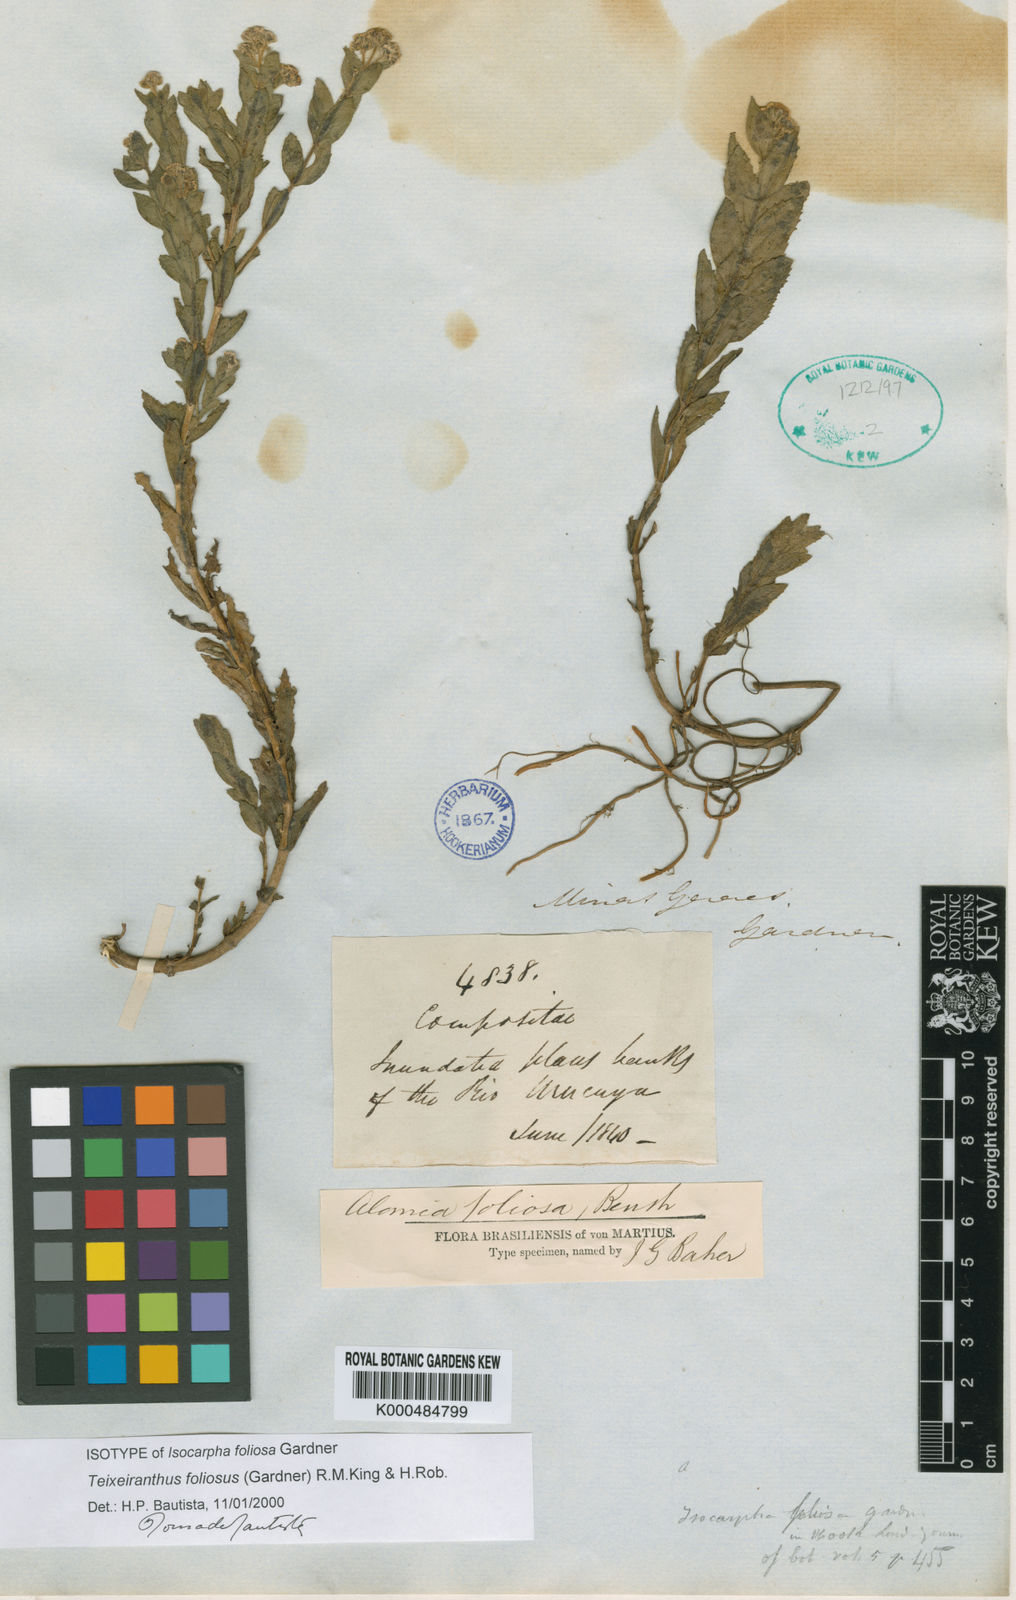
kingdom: Plantae
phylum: Tracheophyta
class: Magnoliopsida
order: Asterales
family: Asteraceae
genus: Teixeiranthus
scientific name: Teixeiranthus foliosus
